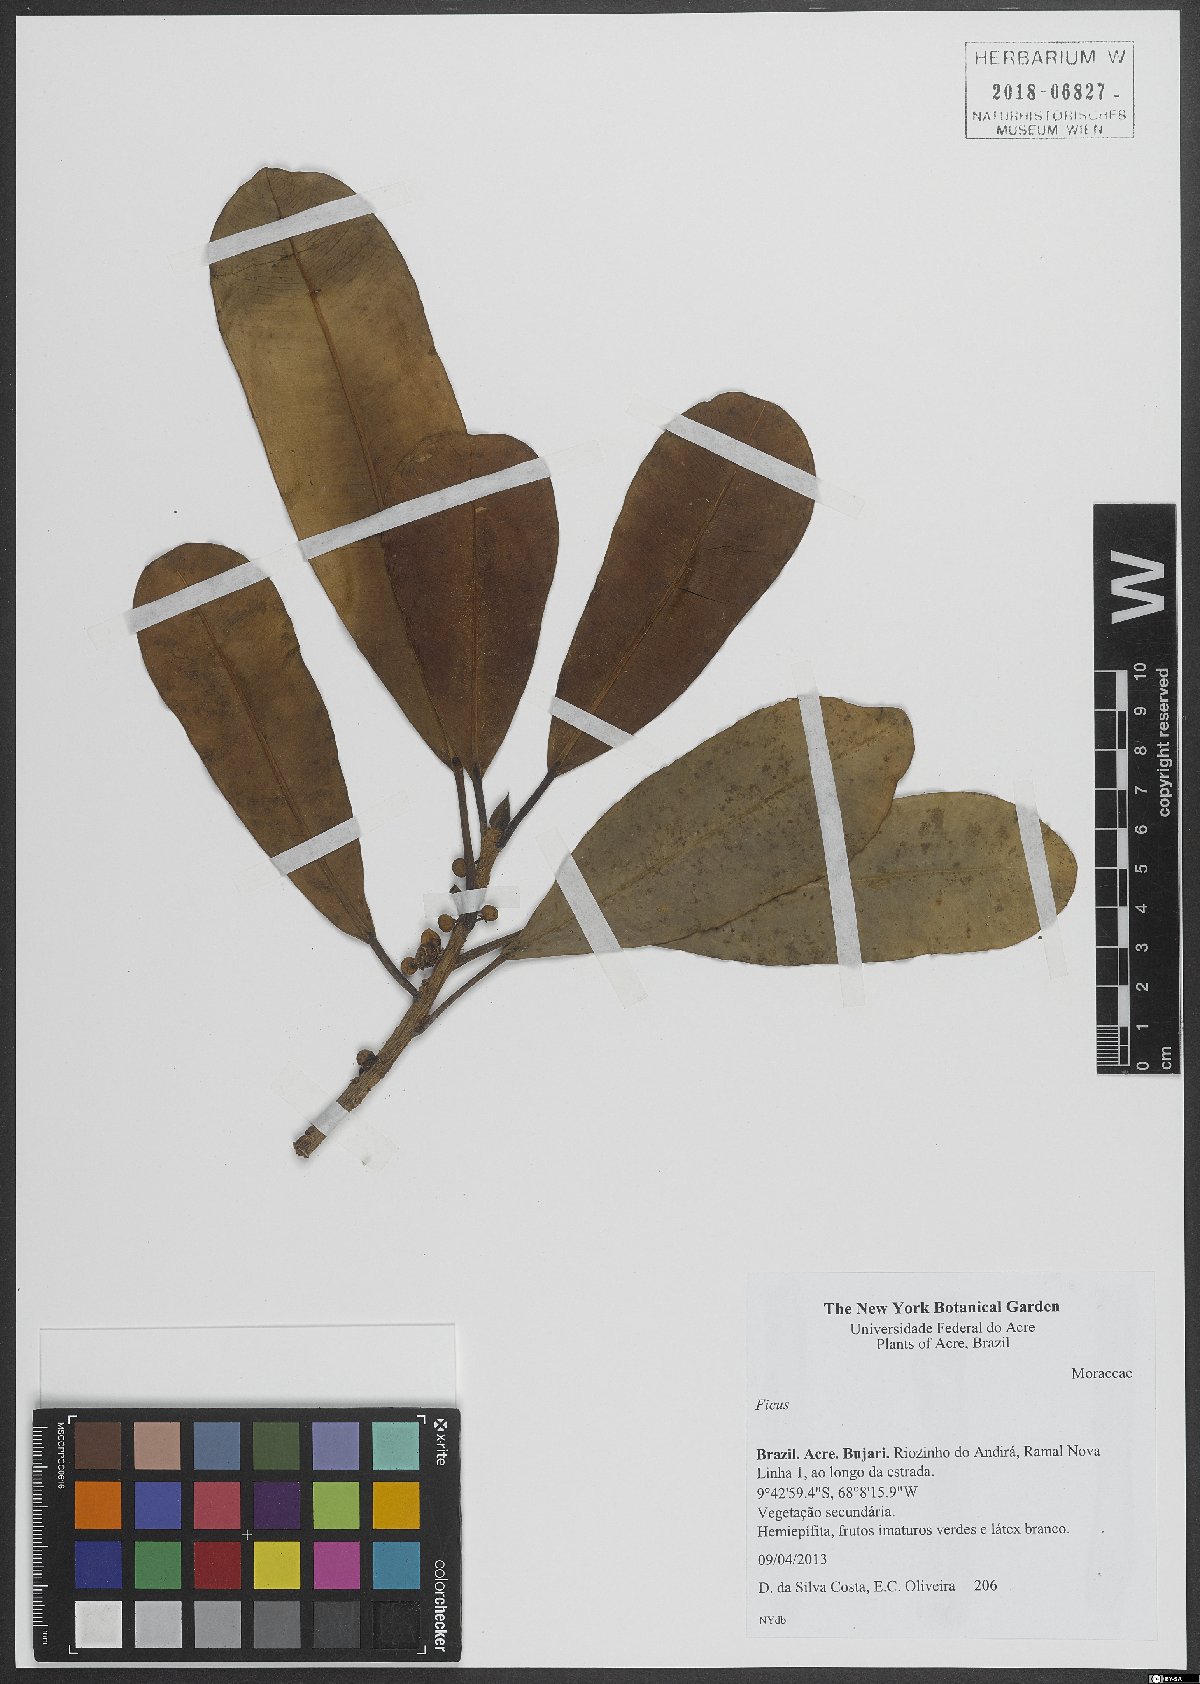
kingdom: Plantae
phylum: Tracheophyta
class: Magnoliopsida
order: Rosales
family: Moraceae
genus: Ficus
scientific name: Ficus
